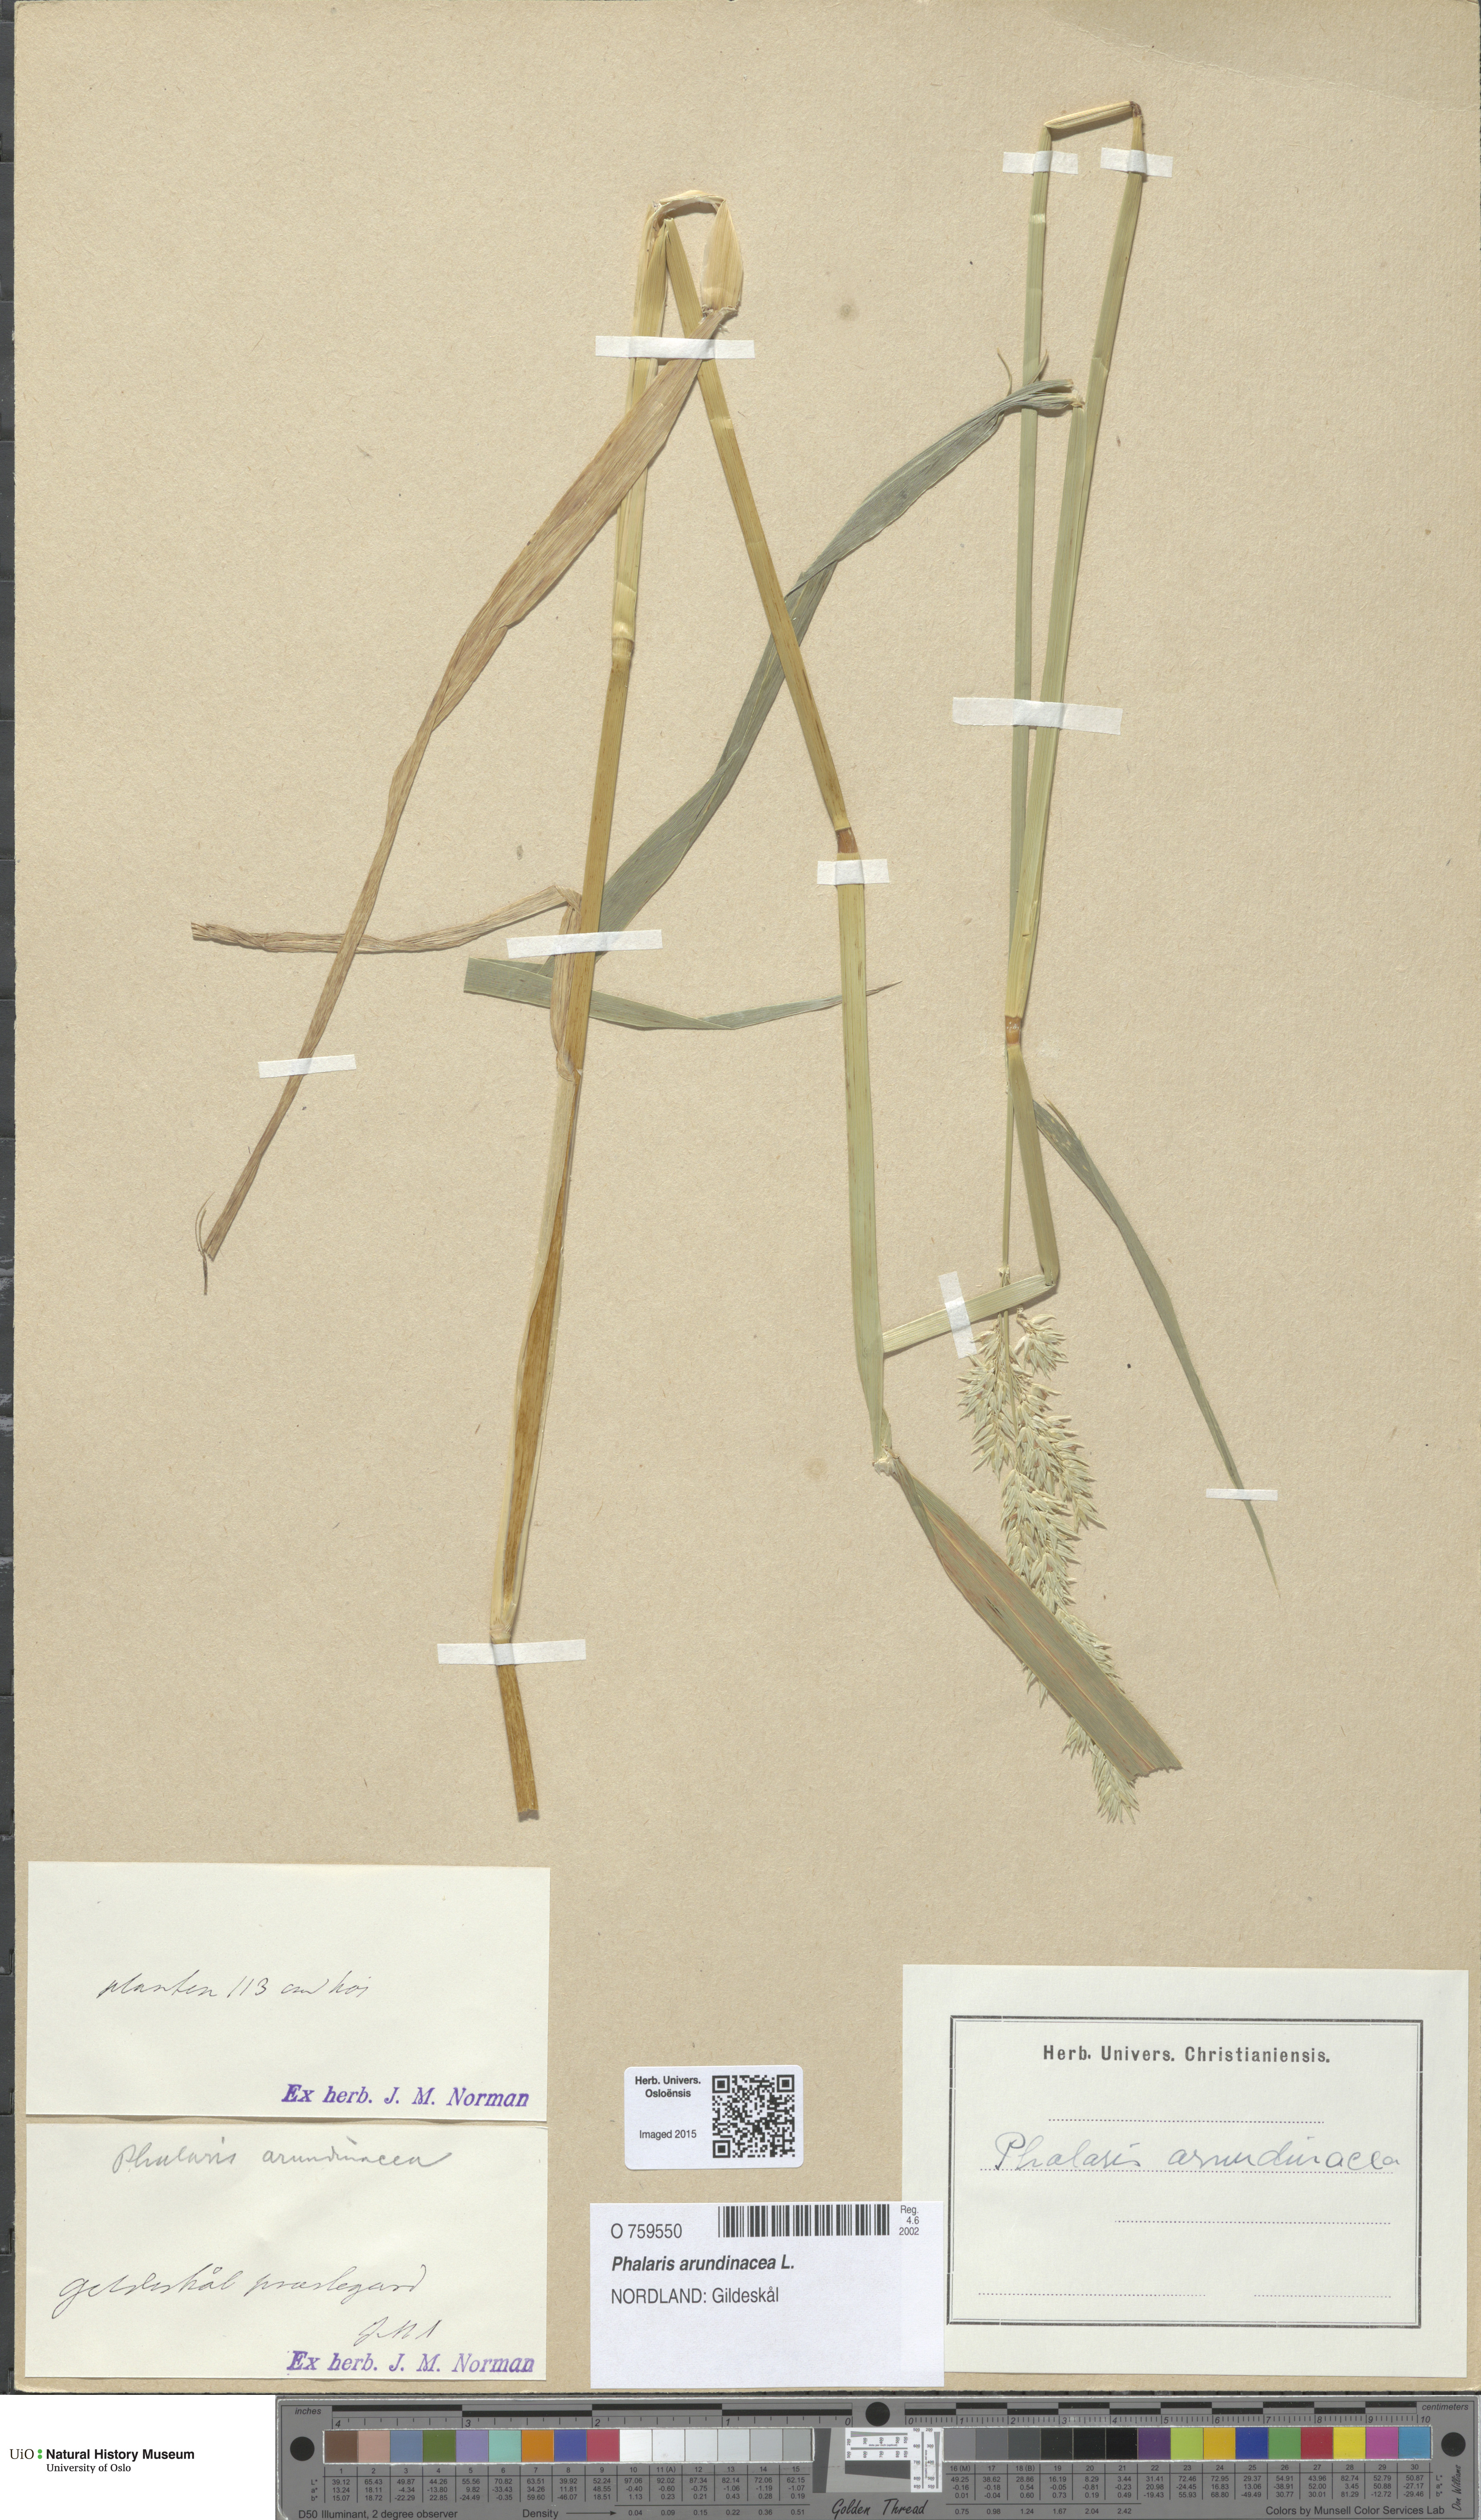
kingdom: Plantae
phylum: Tracheophyta
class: Liliopsida
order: Poales
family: Poaceae
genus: Phalaris
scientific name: Phalaris arundinacea
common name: Reed canary-grass
